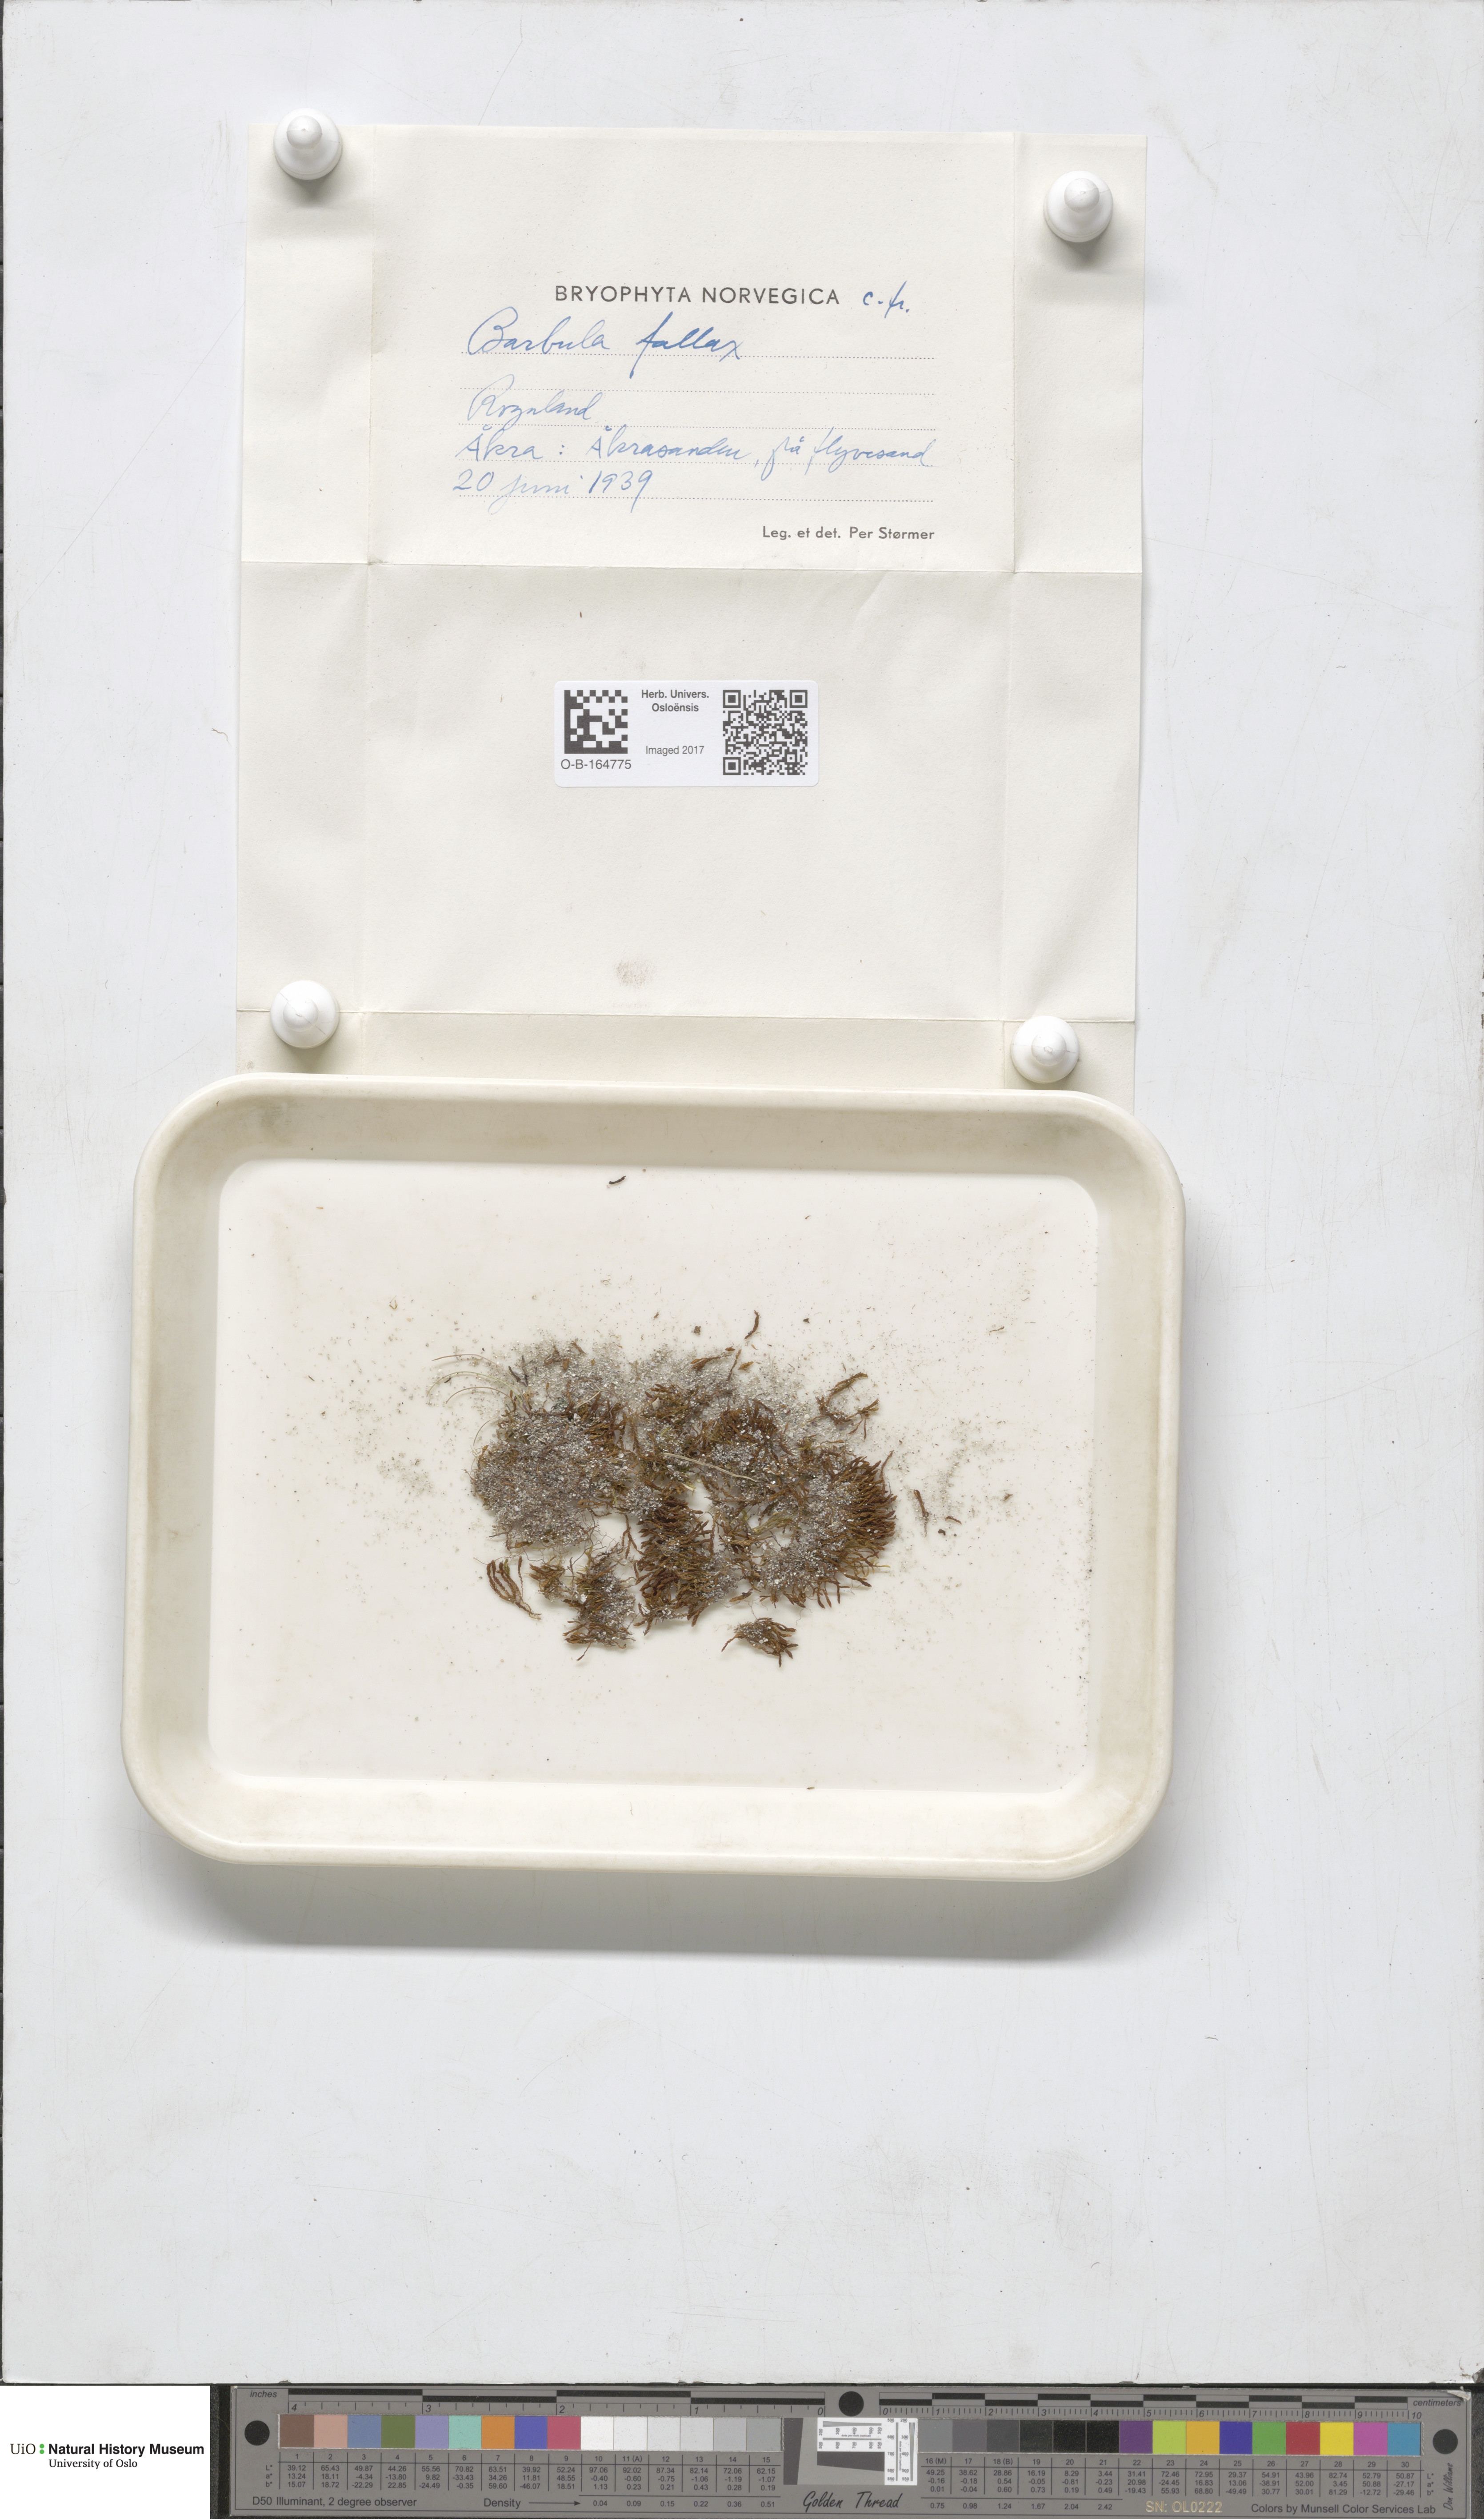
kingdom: Plantae
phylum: Bryophyta
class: Bryopsida
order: Pottiales
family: Pottiaceae
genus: Geheebia
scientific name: Geheebia fallax
